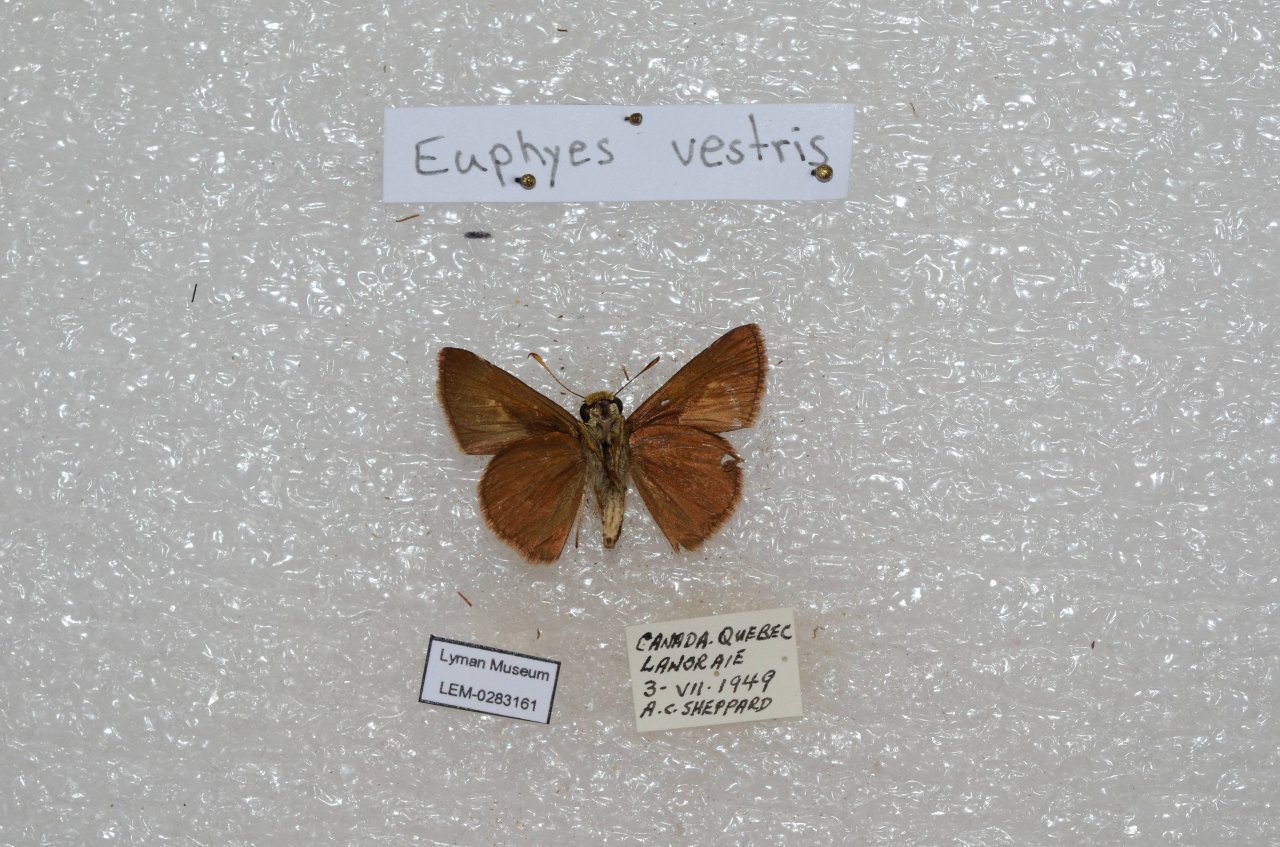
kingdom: Animalia
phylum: Arthropoda
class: Insecta
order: Lepidoptera
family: Hesperiidae
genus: Euphyes
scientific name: Euphyes vestris
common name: Dun Skipper
